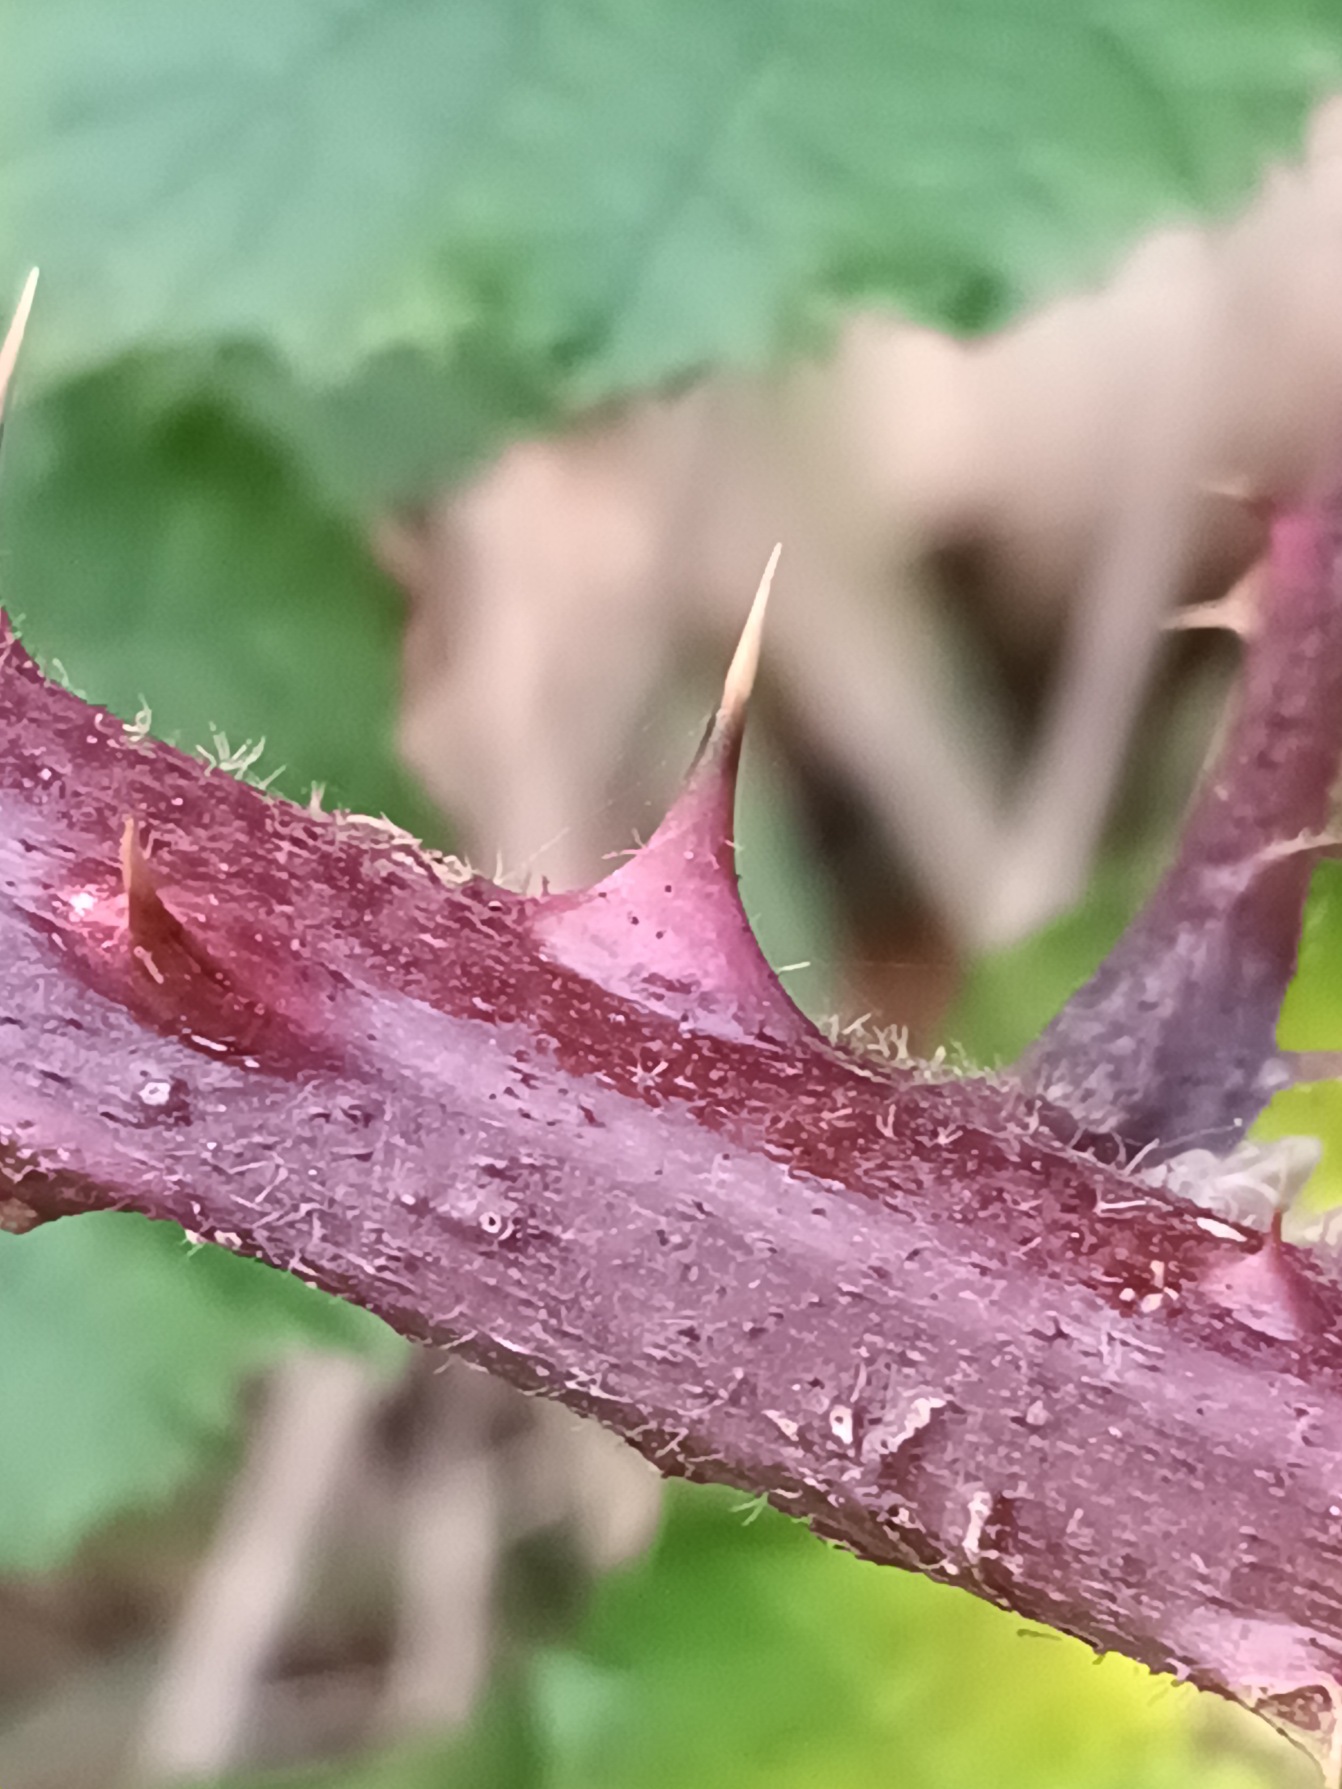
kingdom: Plantae
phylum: Tracheophyta
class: Magnoliopsida
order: Rosales
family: Rosaceae
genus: Rubus
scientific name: Rubus radula
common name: Rasperu brombær
